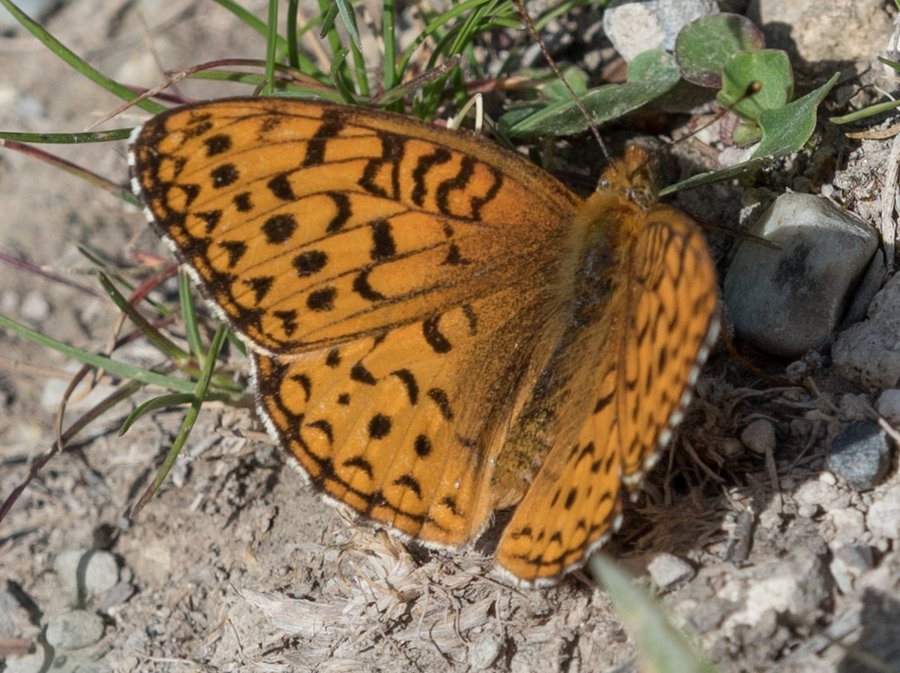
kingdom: Animalia
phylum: Arthropoda
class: Insecta
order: Lepidoptera
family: Nymphalidae
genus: Speyeria
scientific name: Speyeria atlantis
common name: Northwestern Fritillary
